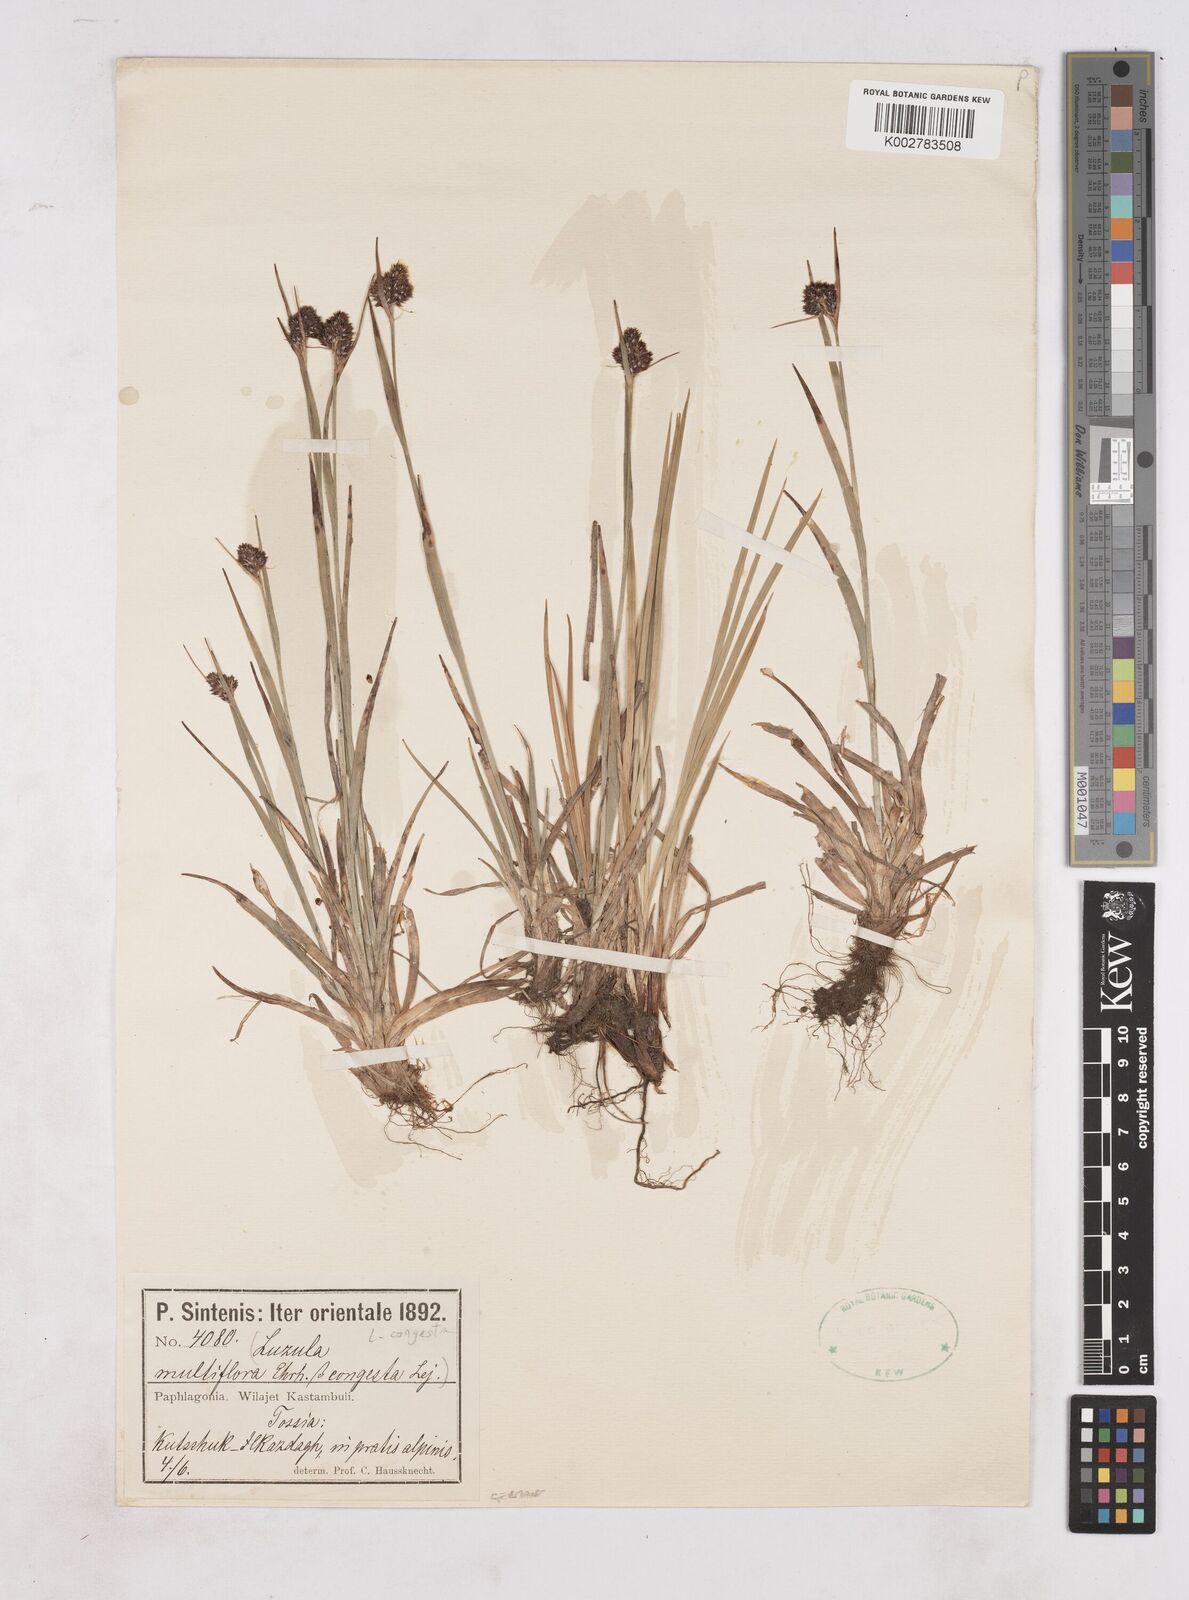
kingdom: Plantae
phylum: Tracheophyta
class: Liliopsida
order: Poales
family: Juncaceae
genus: Luzula
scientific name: Luzula congesta
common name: Heath woodrush
